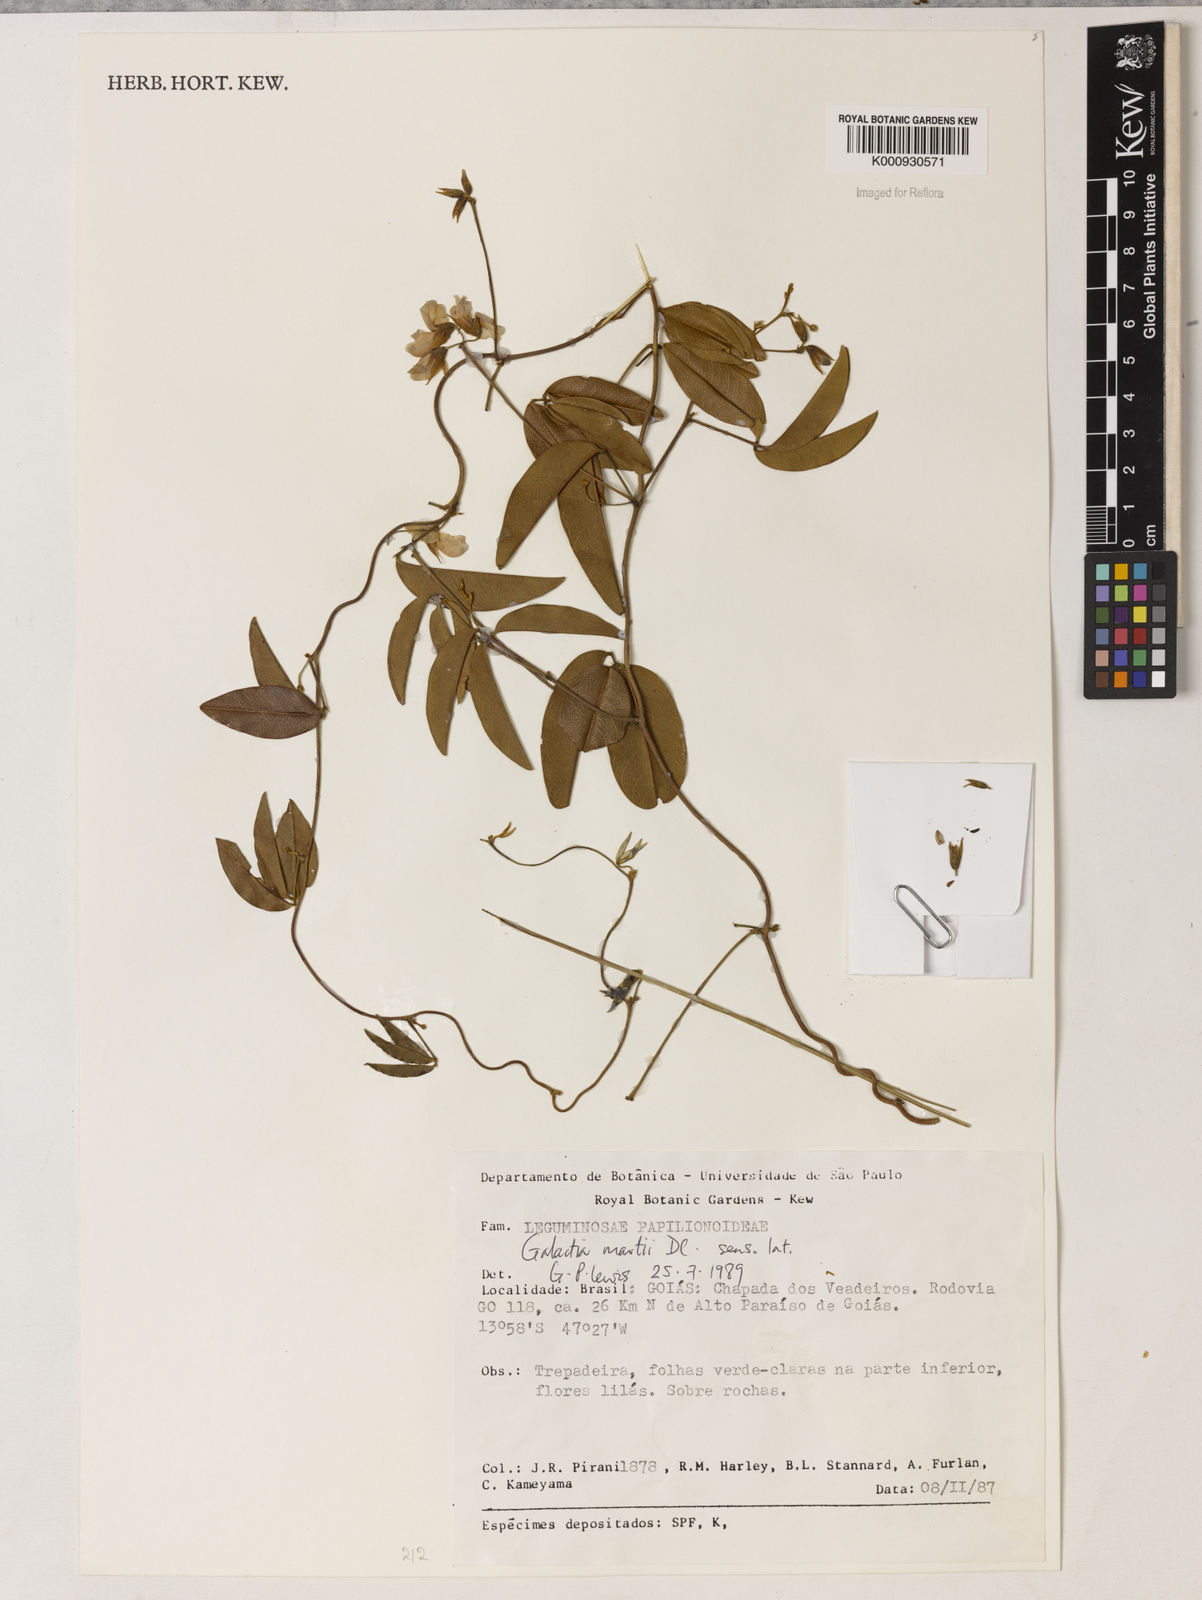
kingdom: Plantae
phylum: Tracheophyta
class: Magnoliopsida
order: Fabales
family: Fabaceae
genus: Betencourtia
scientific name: Betencourtia martii
